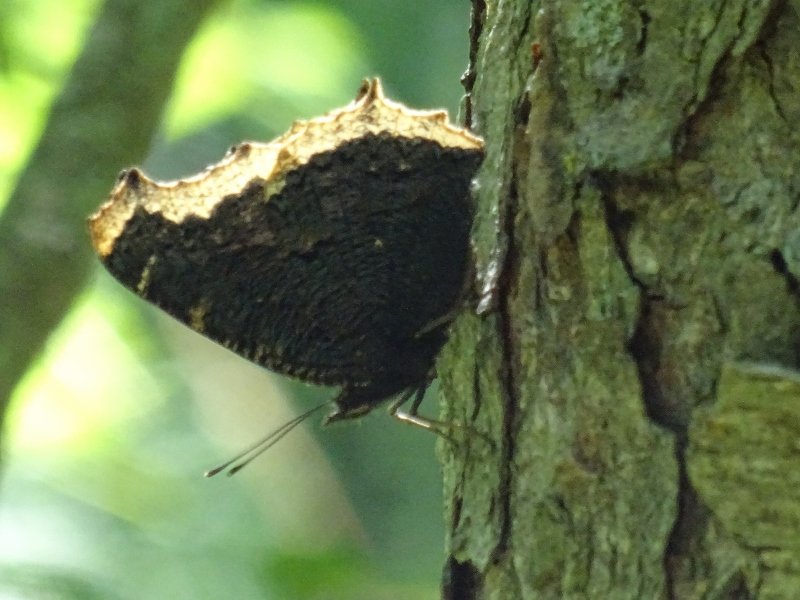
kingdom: Animalia
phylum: Arthropoda
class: Insecta
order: Lepidoptera
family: Nymphalidae
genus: Nymphalis
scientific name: Nymphalis antiopa
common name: Mourning Cloak
